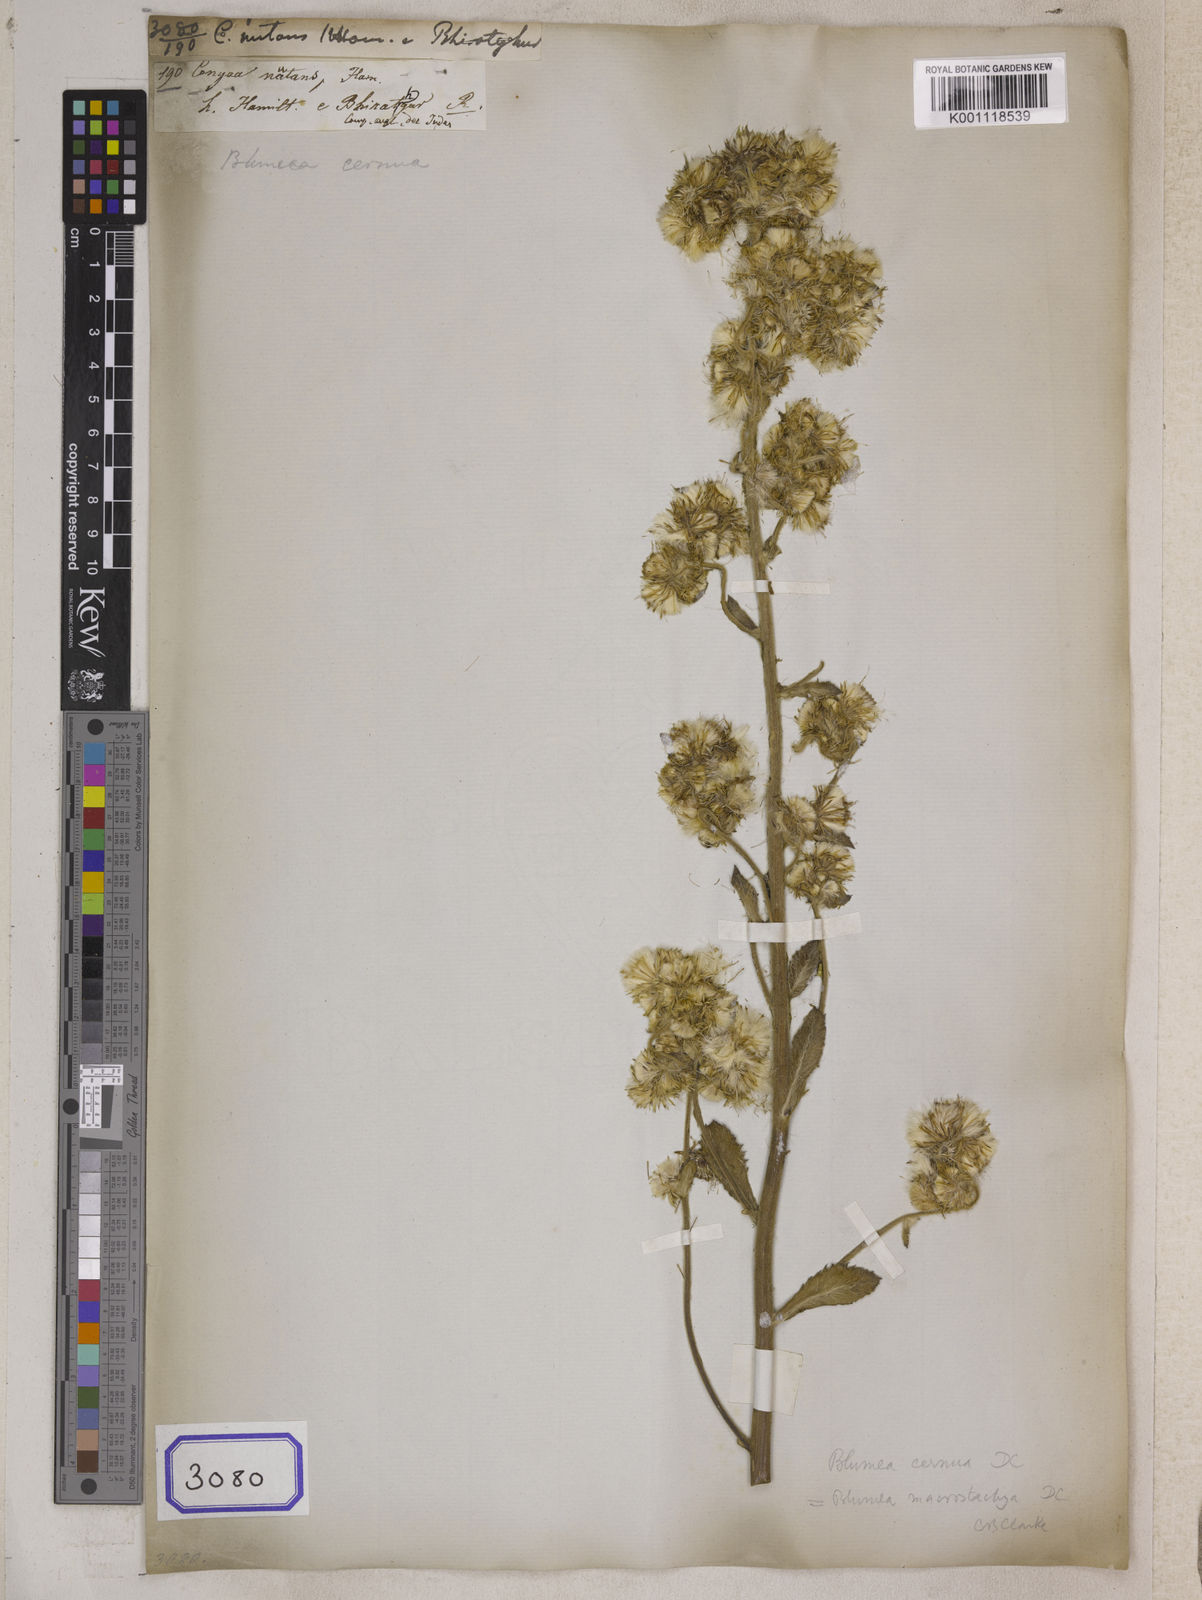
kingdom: Plantae
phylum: Tracheophyta
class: Magnoliopsida
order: Asterales
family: Asteraceae
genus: Blumea
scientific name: Blumea hieraciifolia
